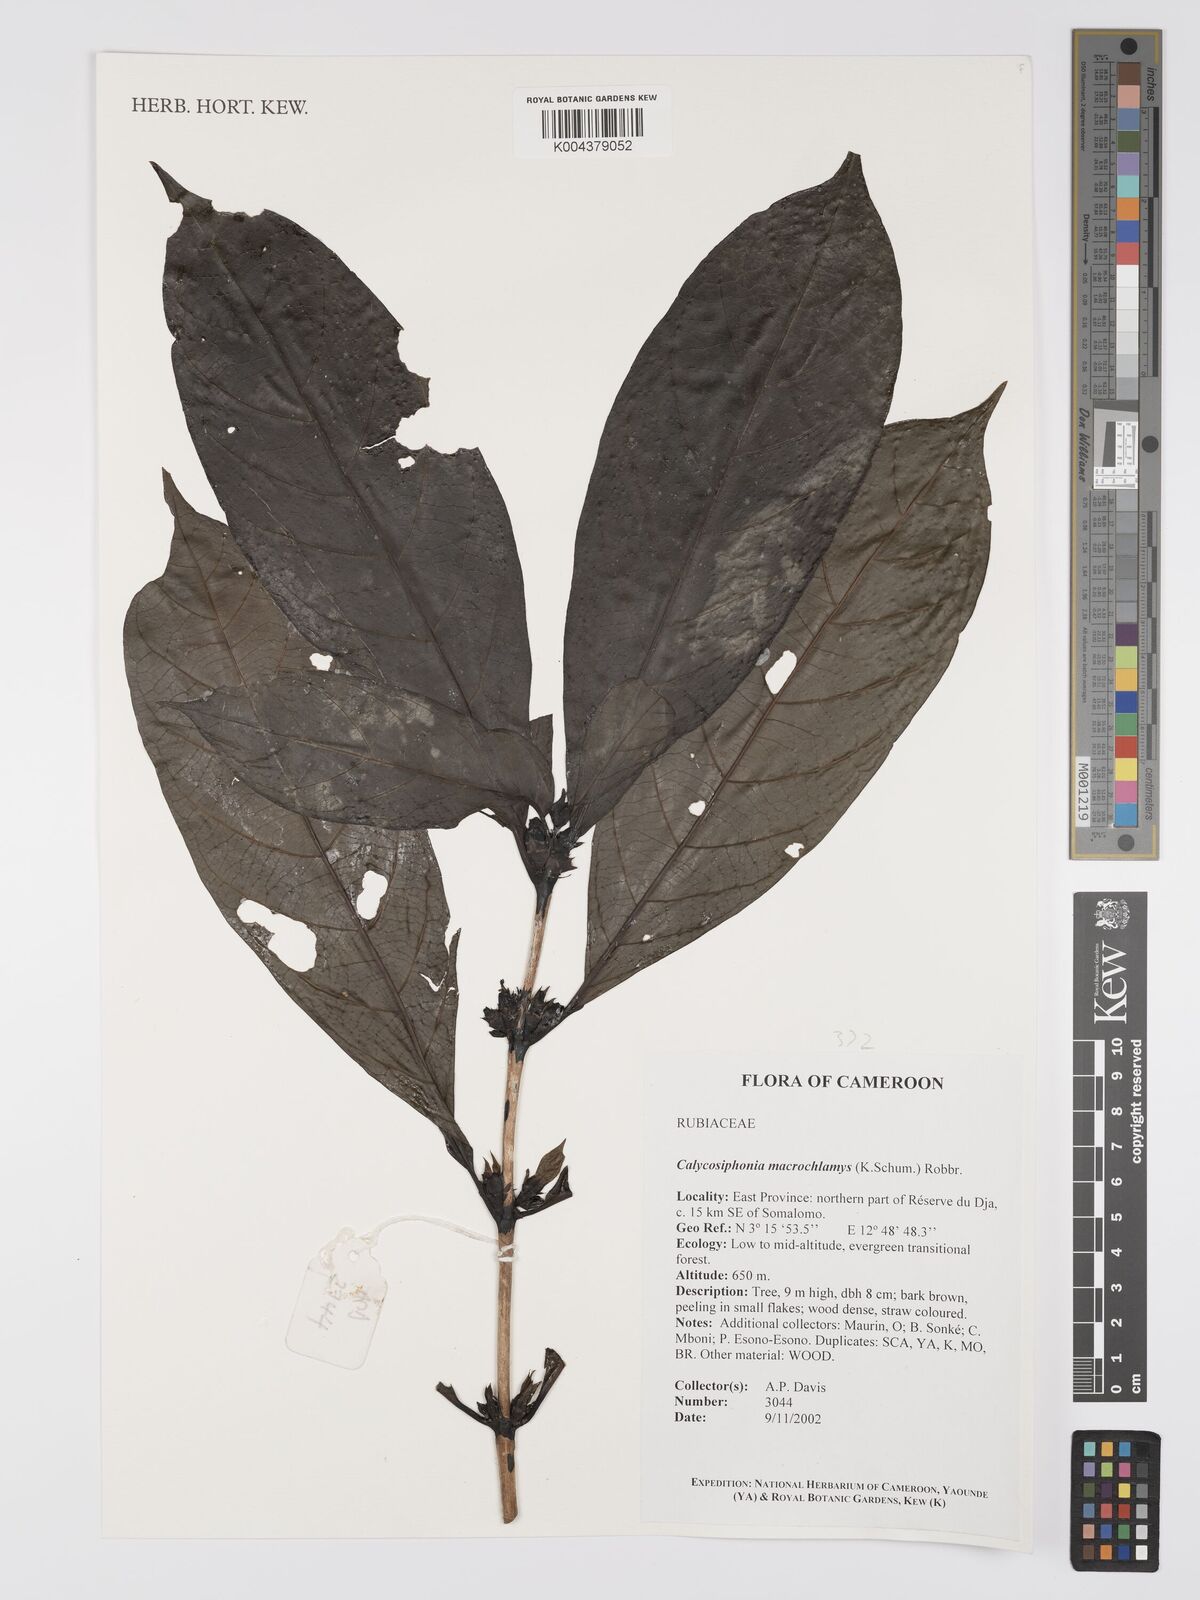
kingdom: Plantae
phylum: Tracheophyta
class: Magnoliopsida
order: Gentianales
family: Rubiaceae
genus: Calycosiphonia
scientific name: Calycosiphonia macrochlamys
